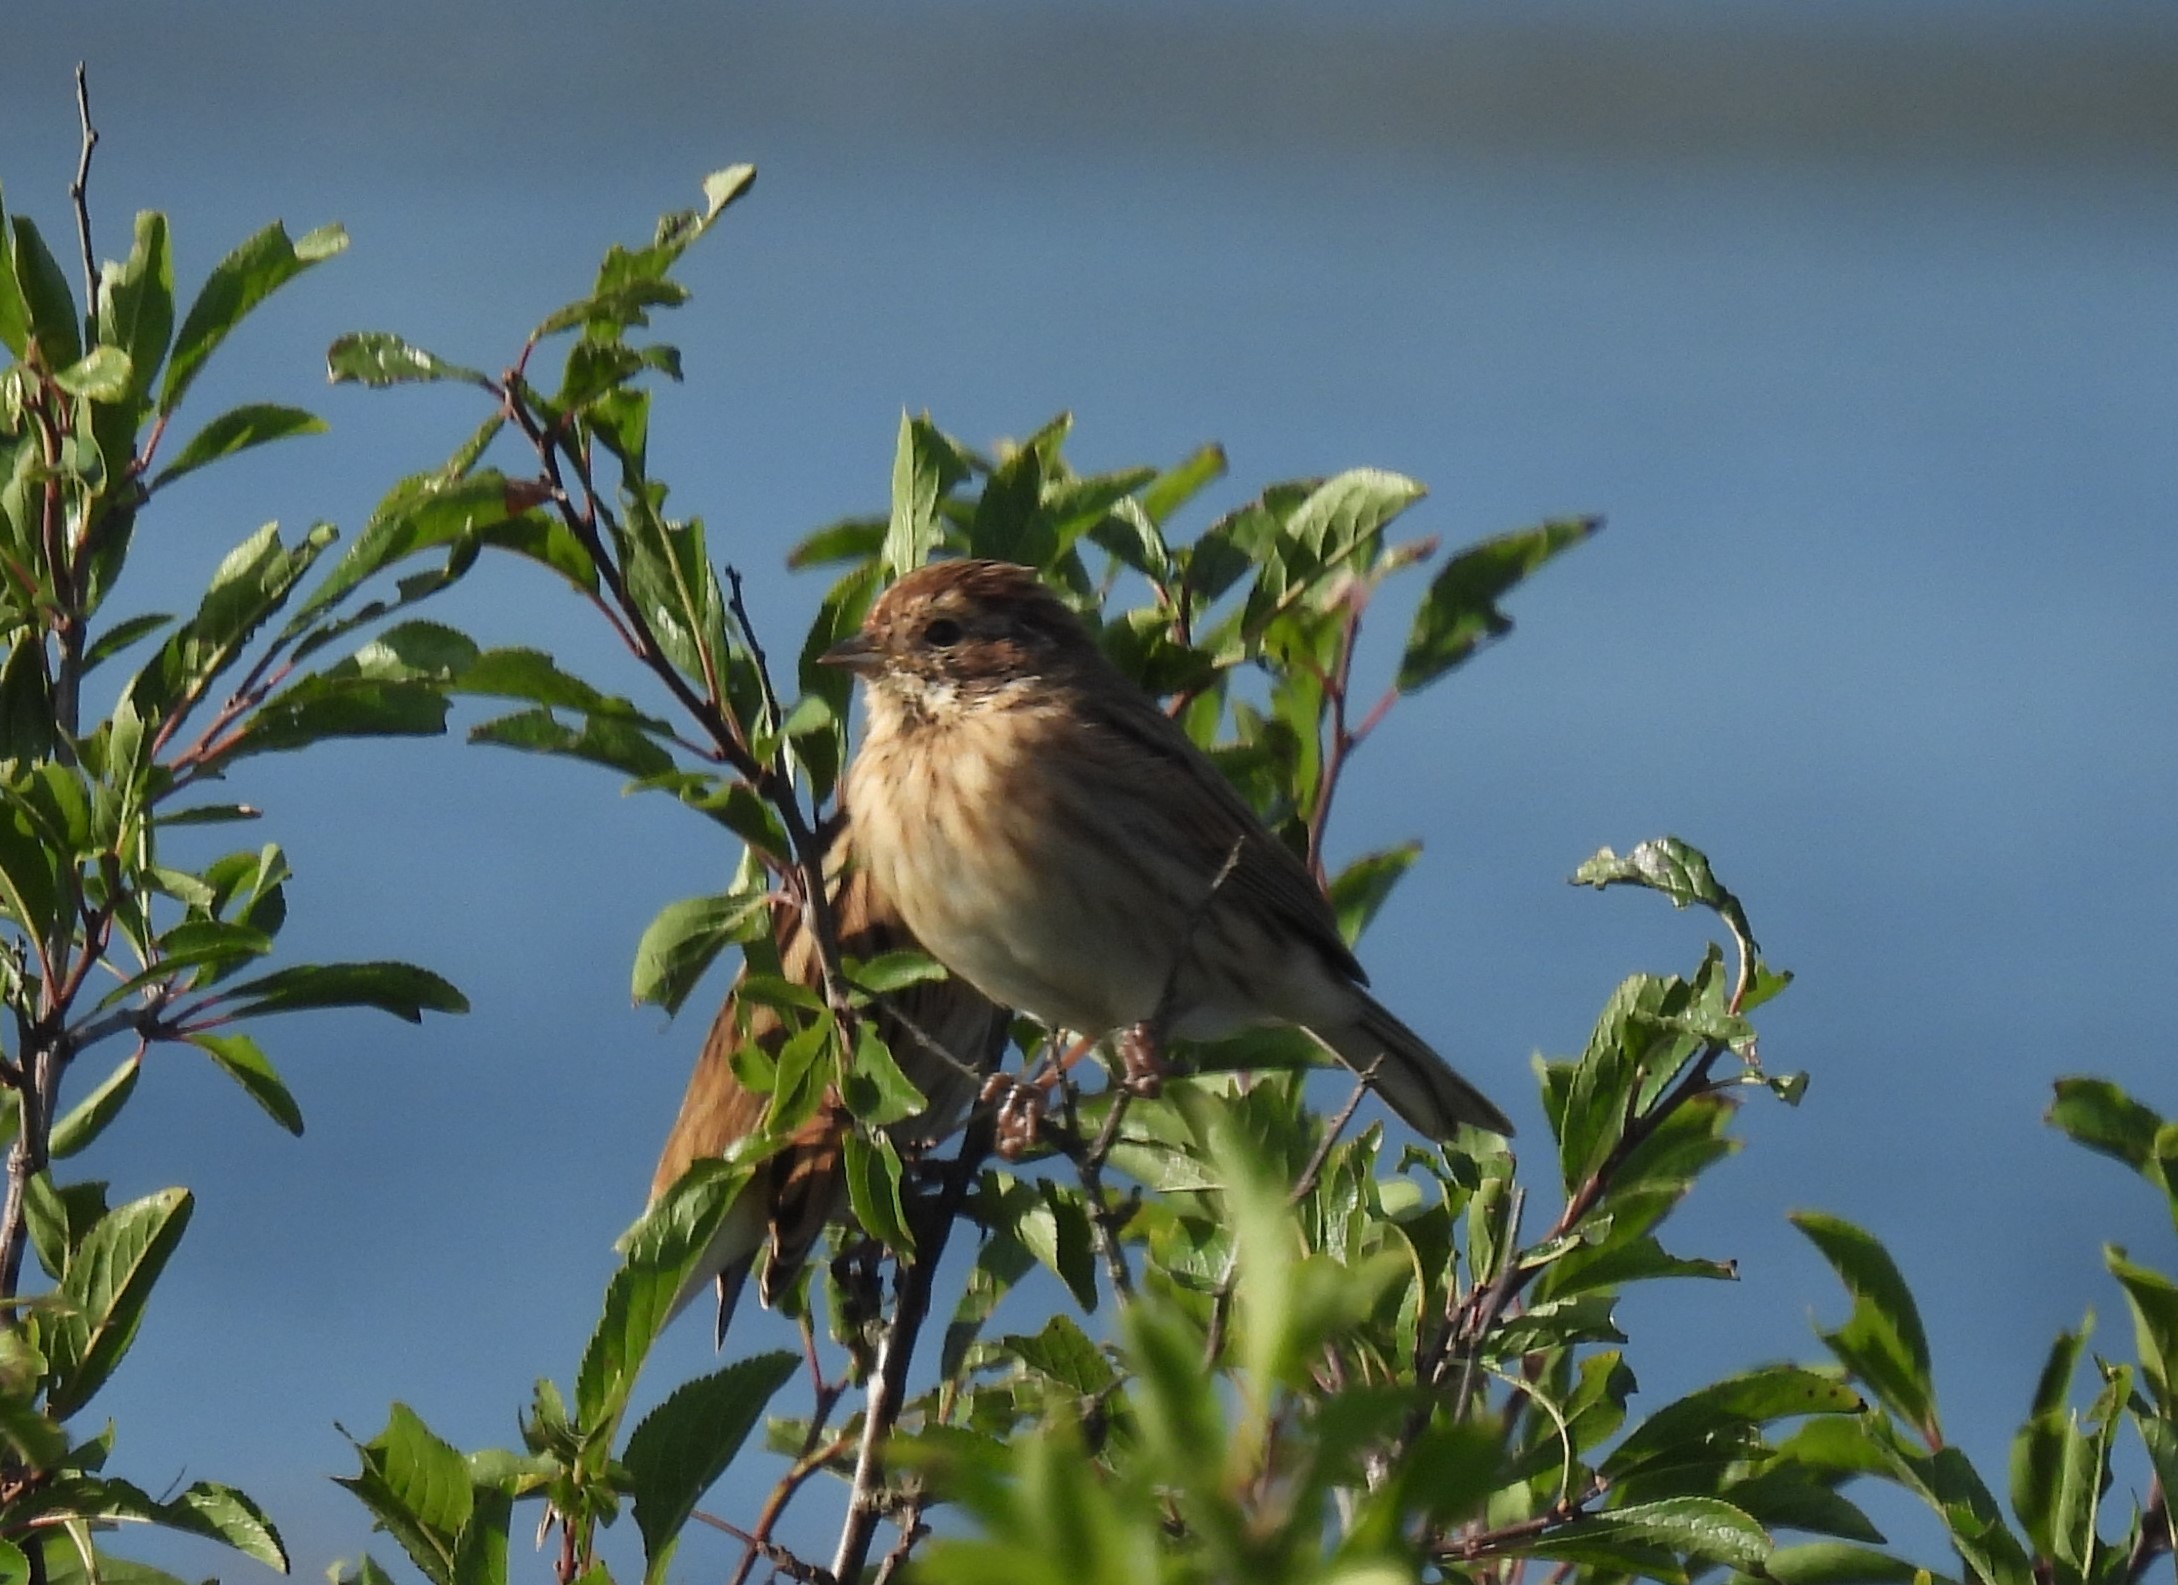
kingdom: Animalia
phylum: Chordata
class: Aves
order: Passeriformes
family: Emberizidae
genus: Emberiza
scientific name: Emberiza schoeniclus
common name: Rørspurv
